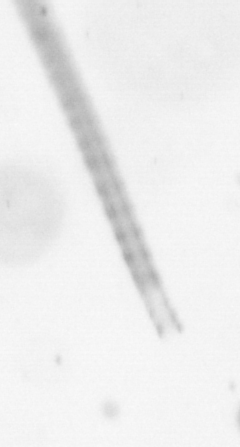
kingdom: Chromista
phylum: Ochrophyta
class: Bacillariophyceae
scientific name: Bacillariophyceae
